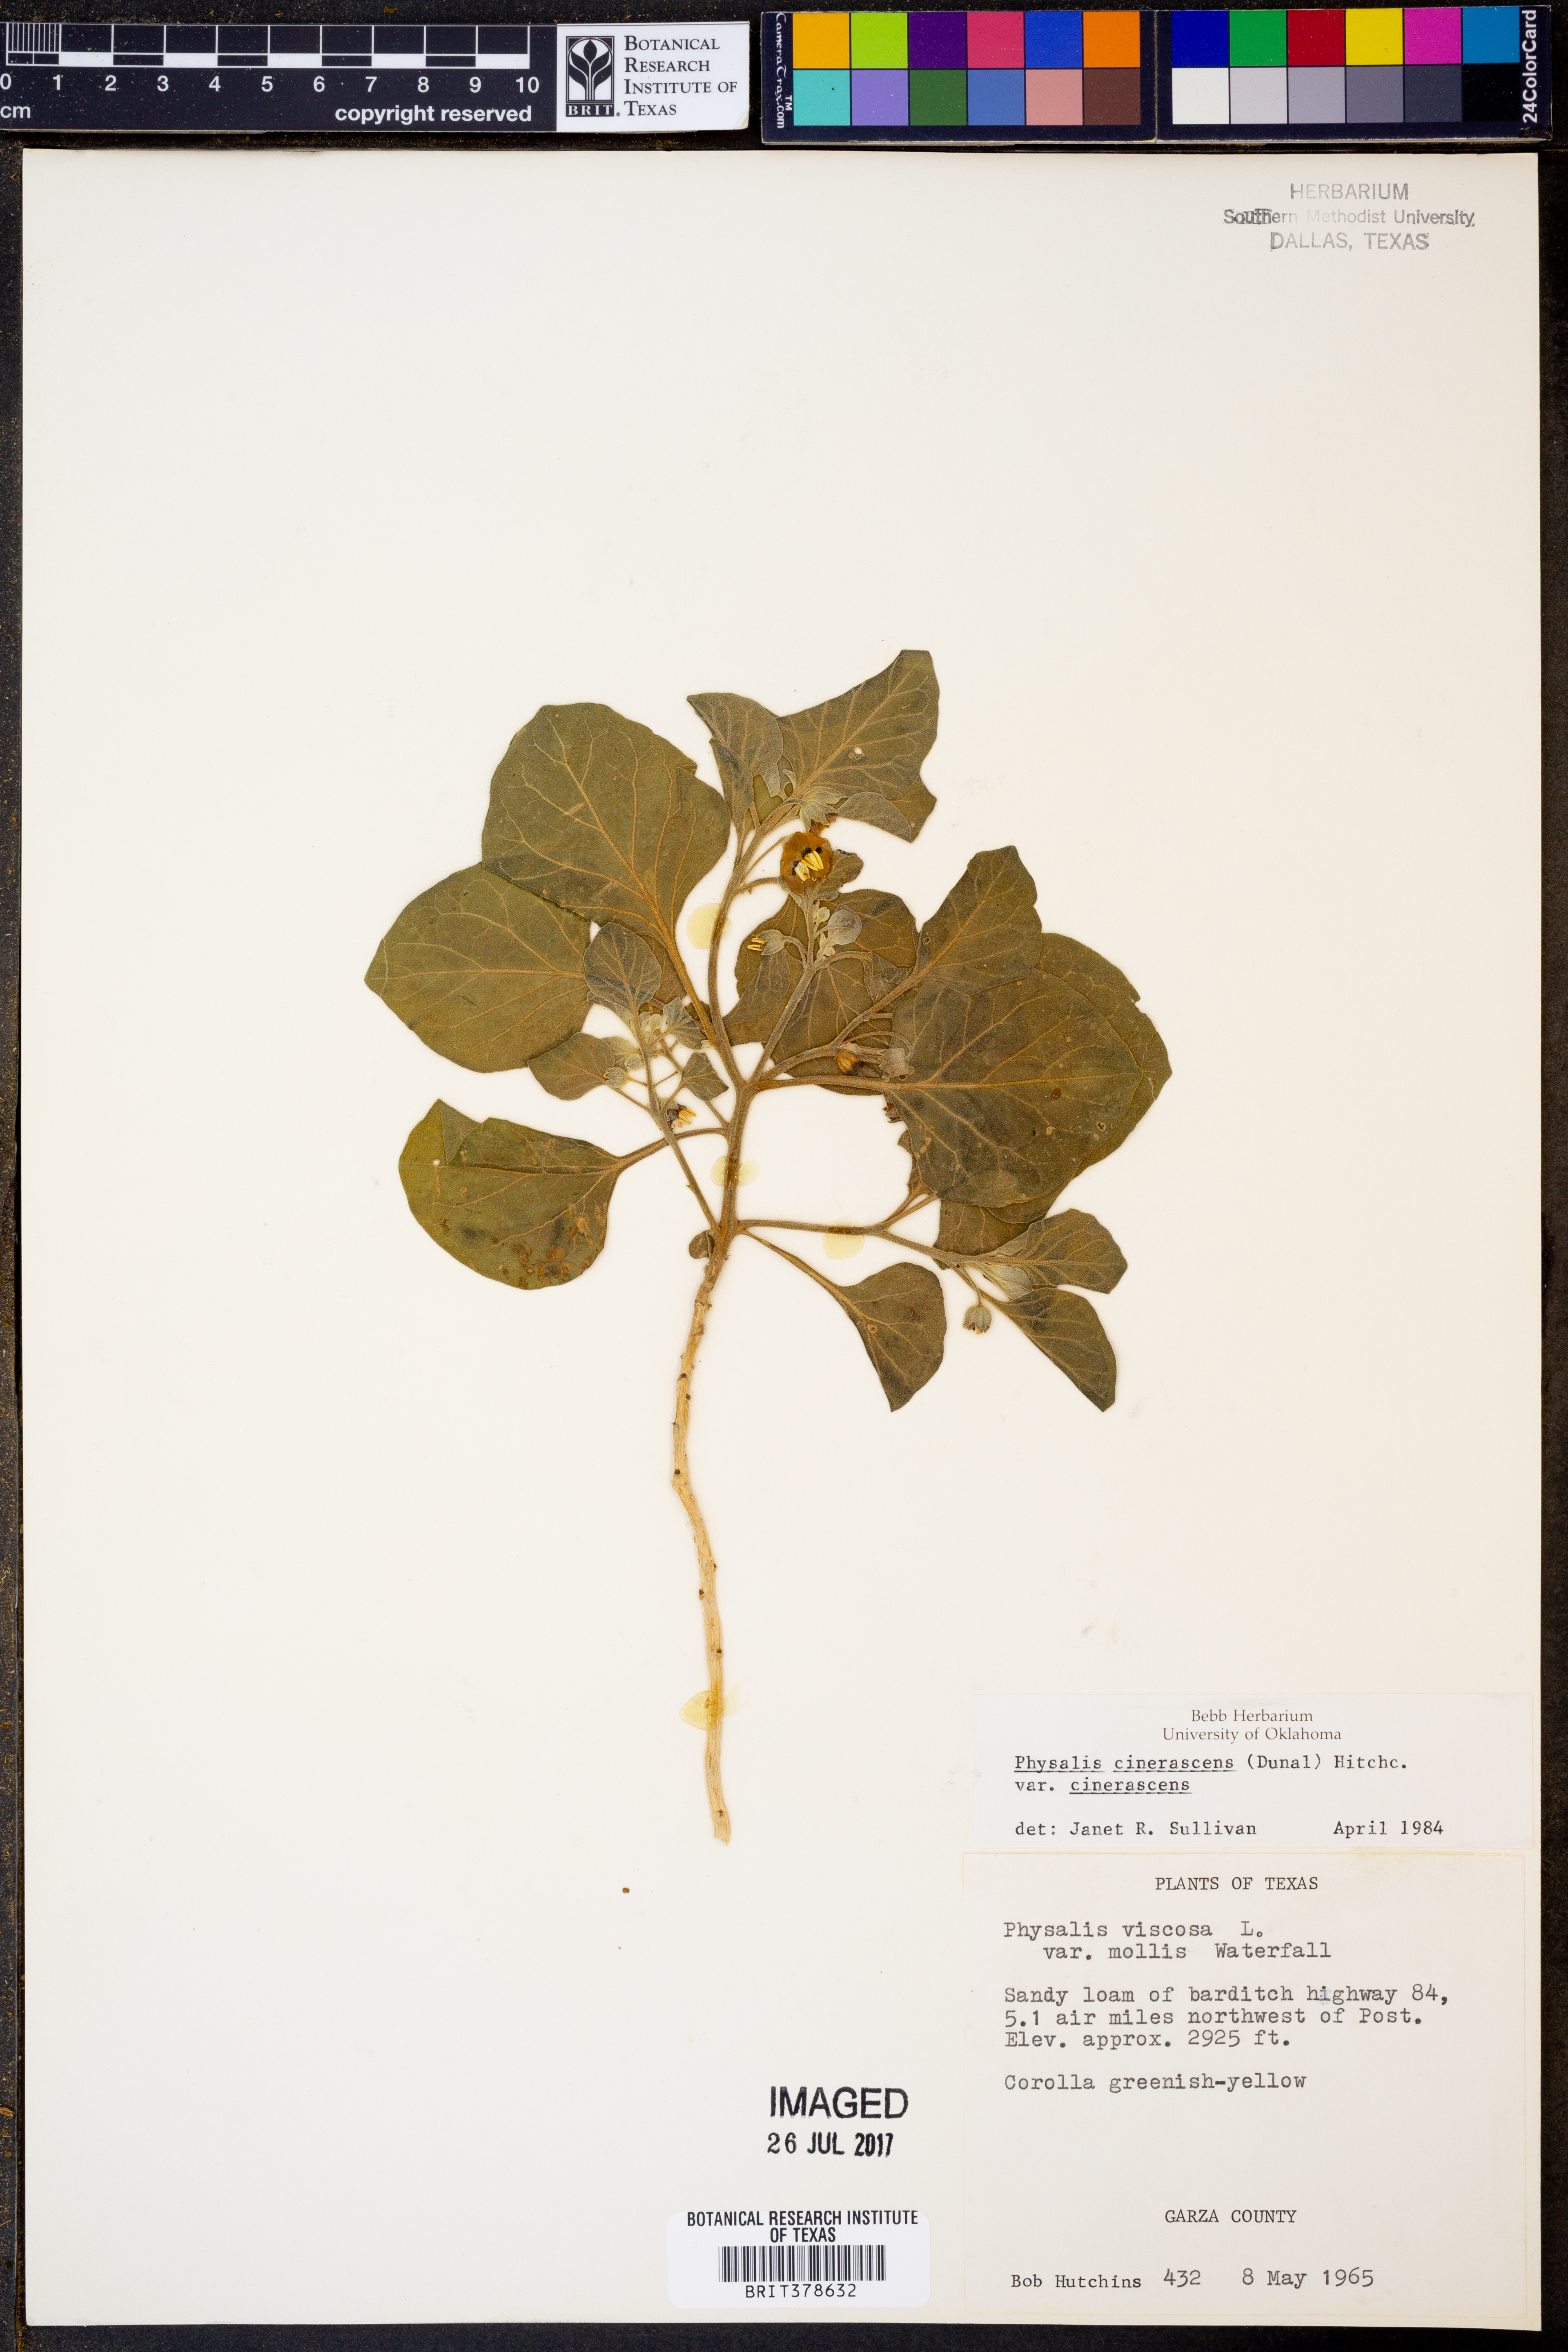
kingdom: Plantae
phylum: Tracheophyta
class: Magnoliopsida
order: Solanales
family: Solanaceae
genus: Physalis
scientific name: Physalis cinerascens
